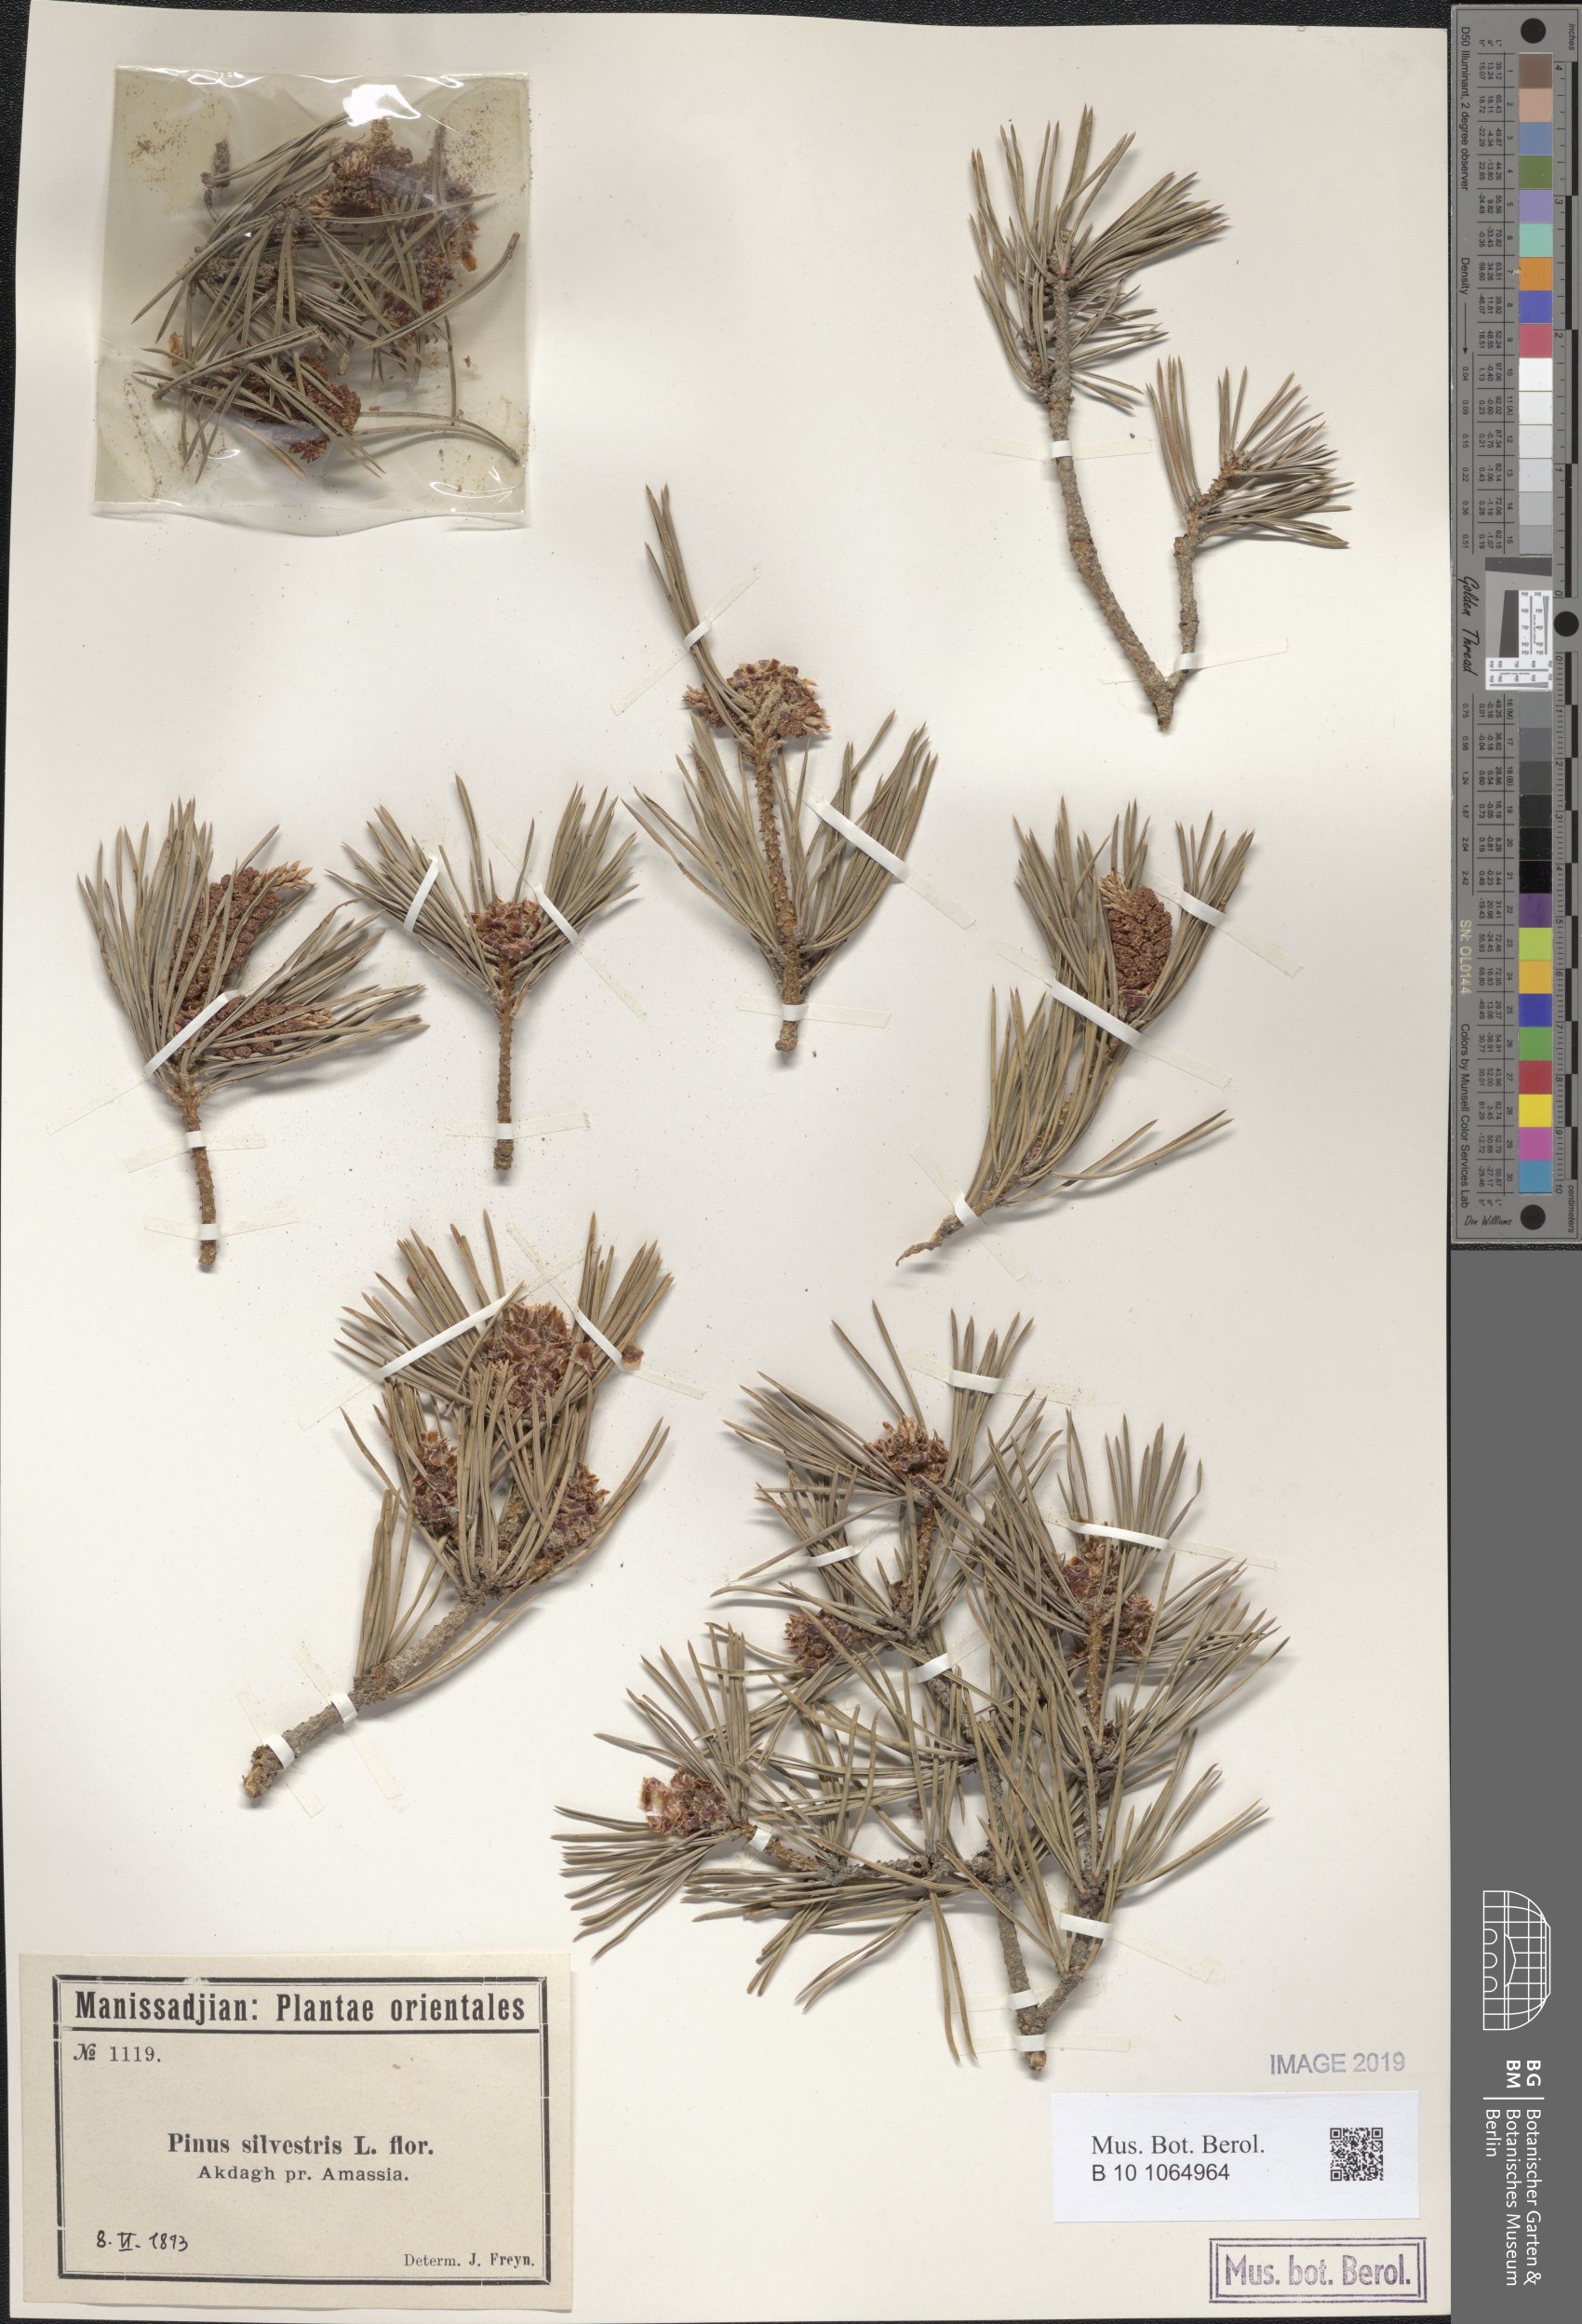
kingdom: Plantae
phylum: Tracheophyta
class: Pinopsida
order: Pinales
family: Pinaceae
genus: Pinus
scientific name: Pinus sylvestris
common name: Scots pine
